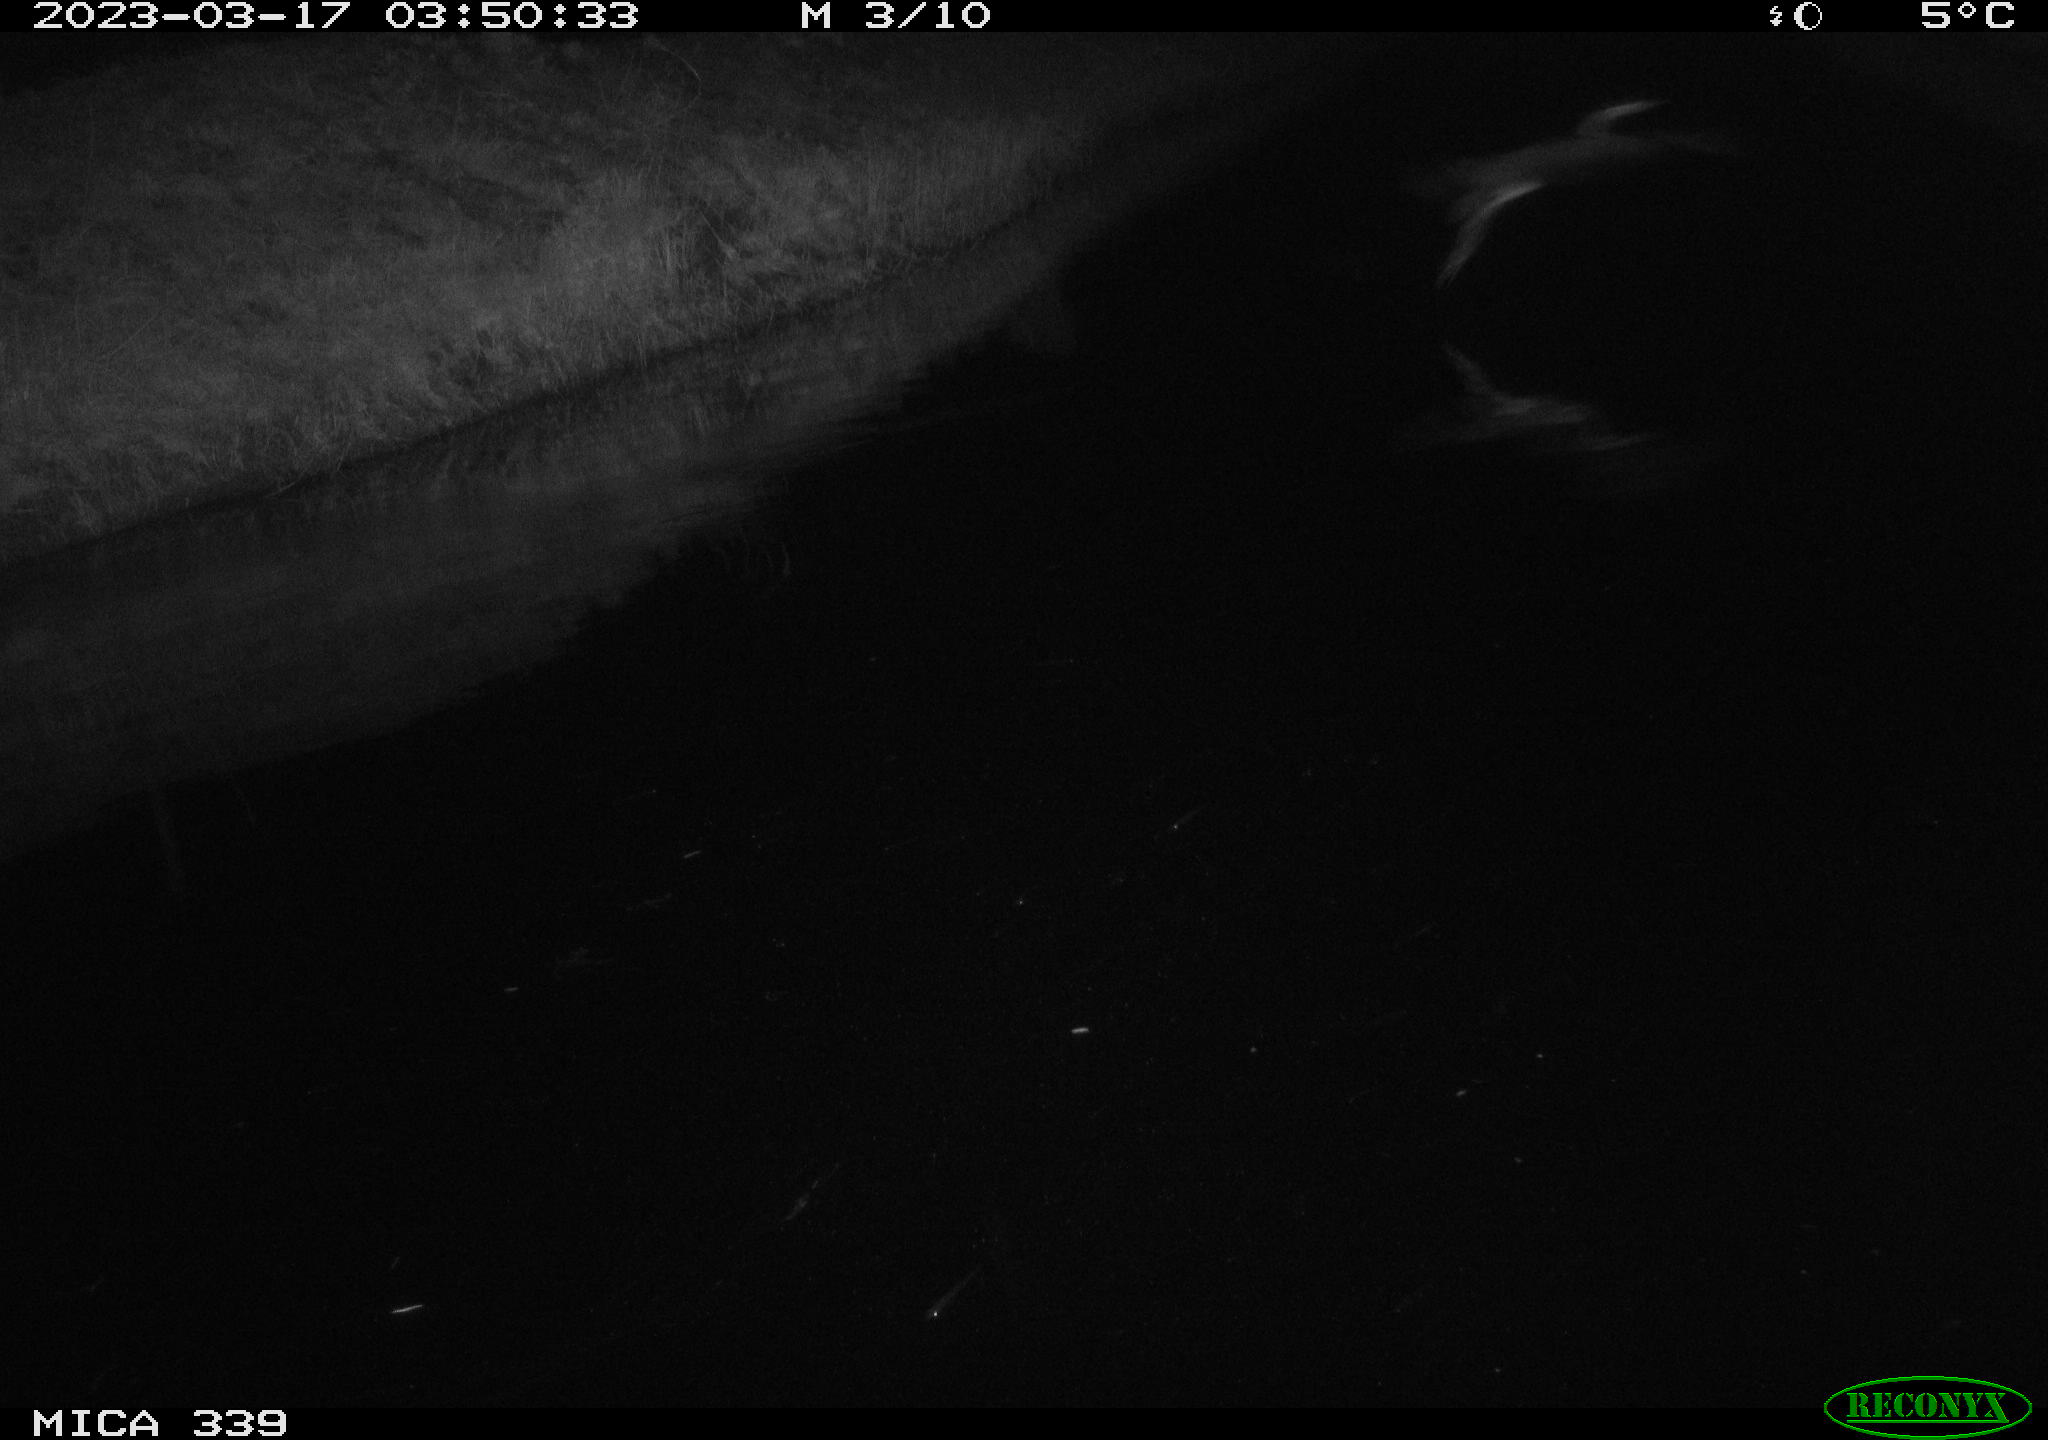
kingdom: Animalia
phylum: Chordata
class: Aves
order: Pelecaniformes
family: Ardeidae
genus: Ardea
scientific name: Ardea cinerea
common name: Grey heron
